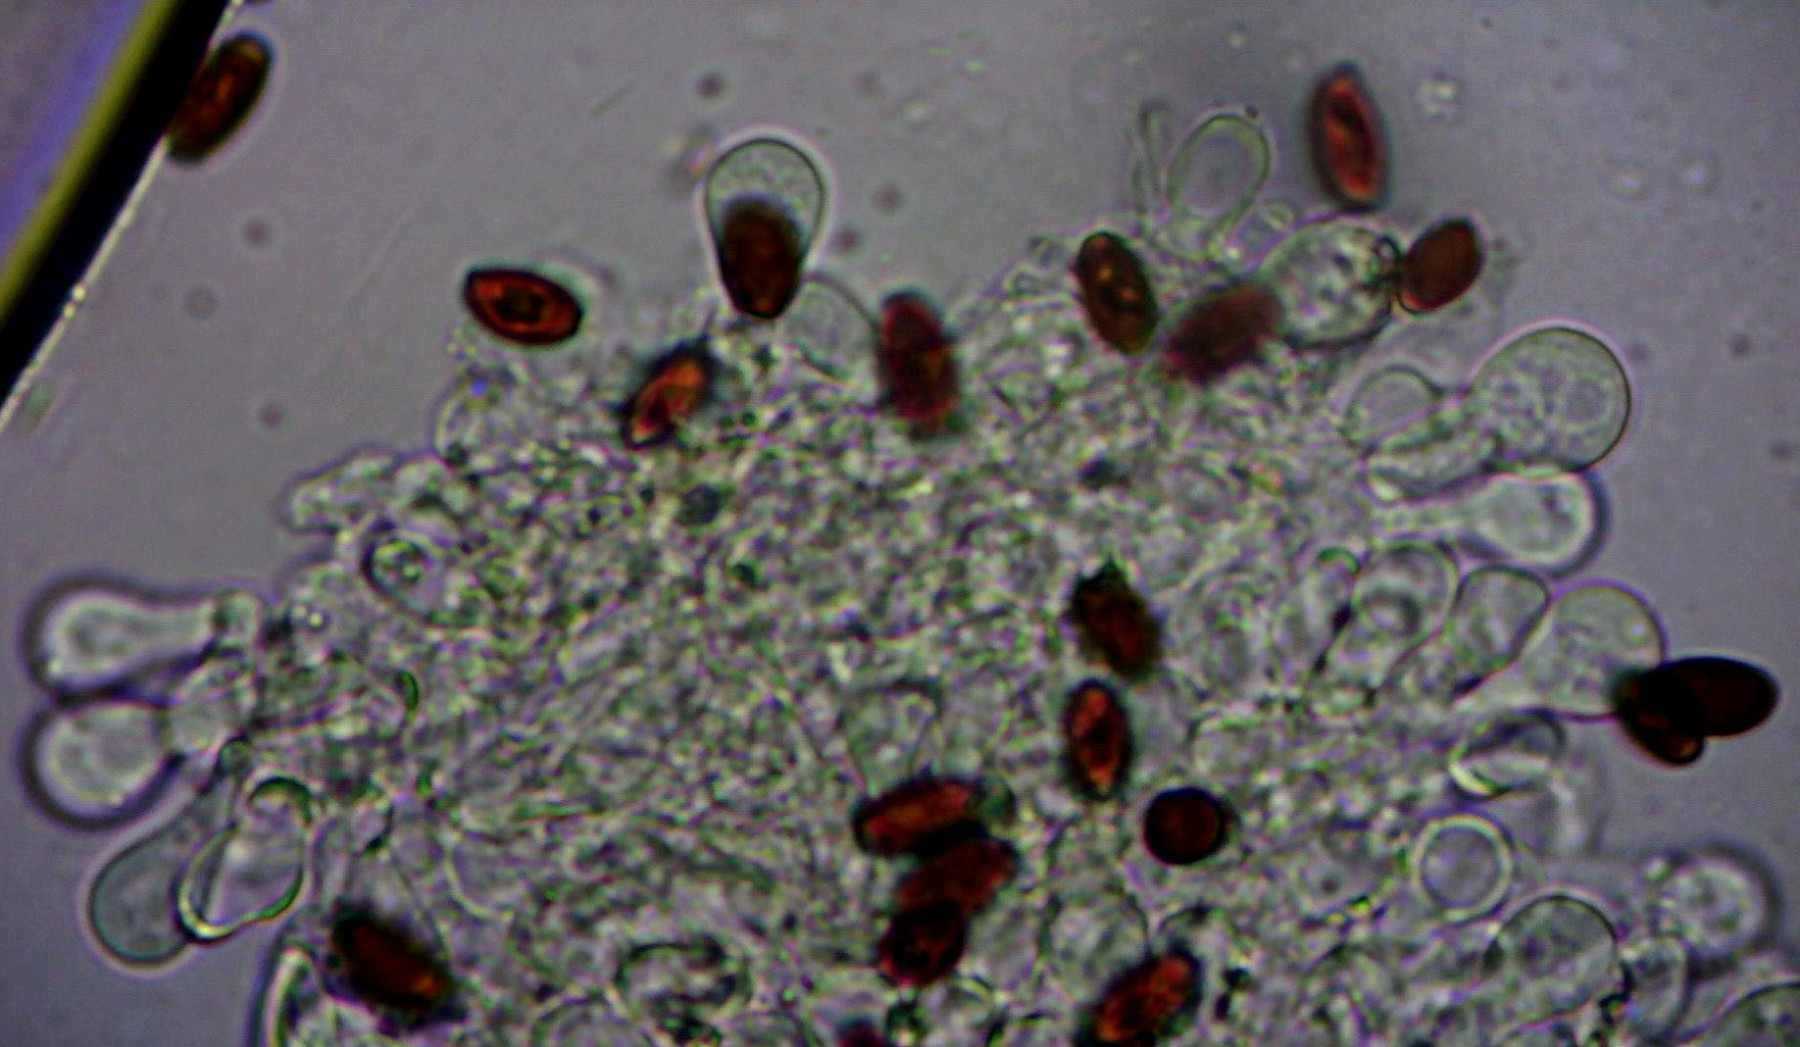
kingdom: Fungi
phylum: Basidiomycota
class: Agaricomycetes
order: Agaricales
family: Psathyrellaceae
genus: Psathyrella
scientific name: Psathyrella
